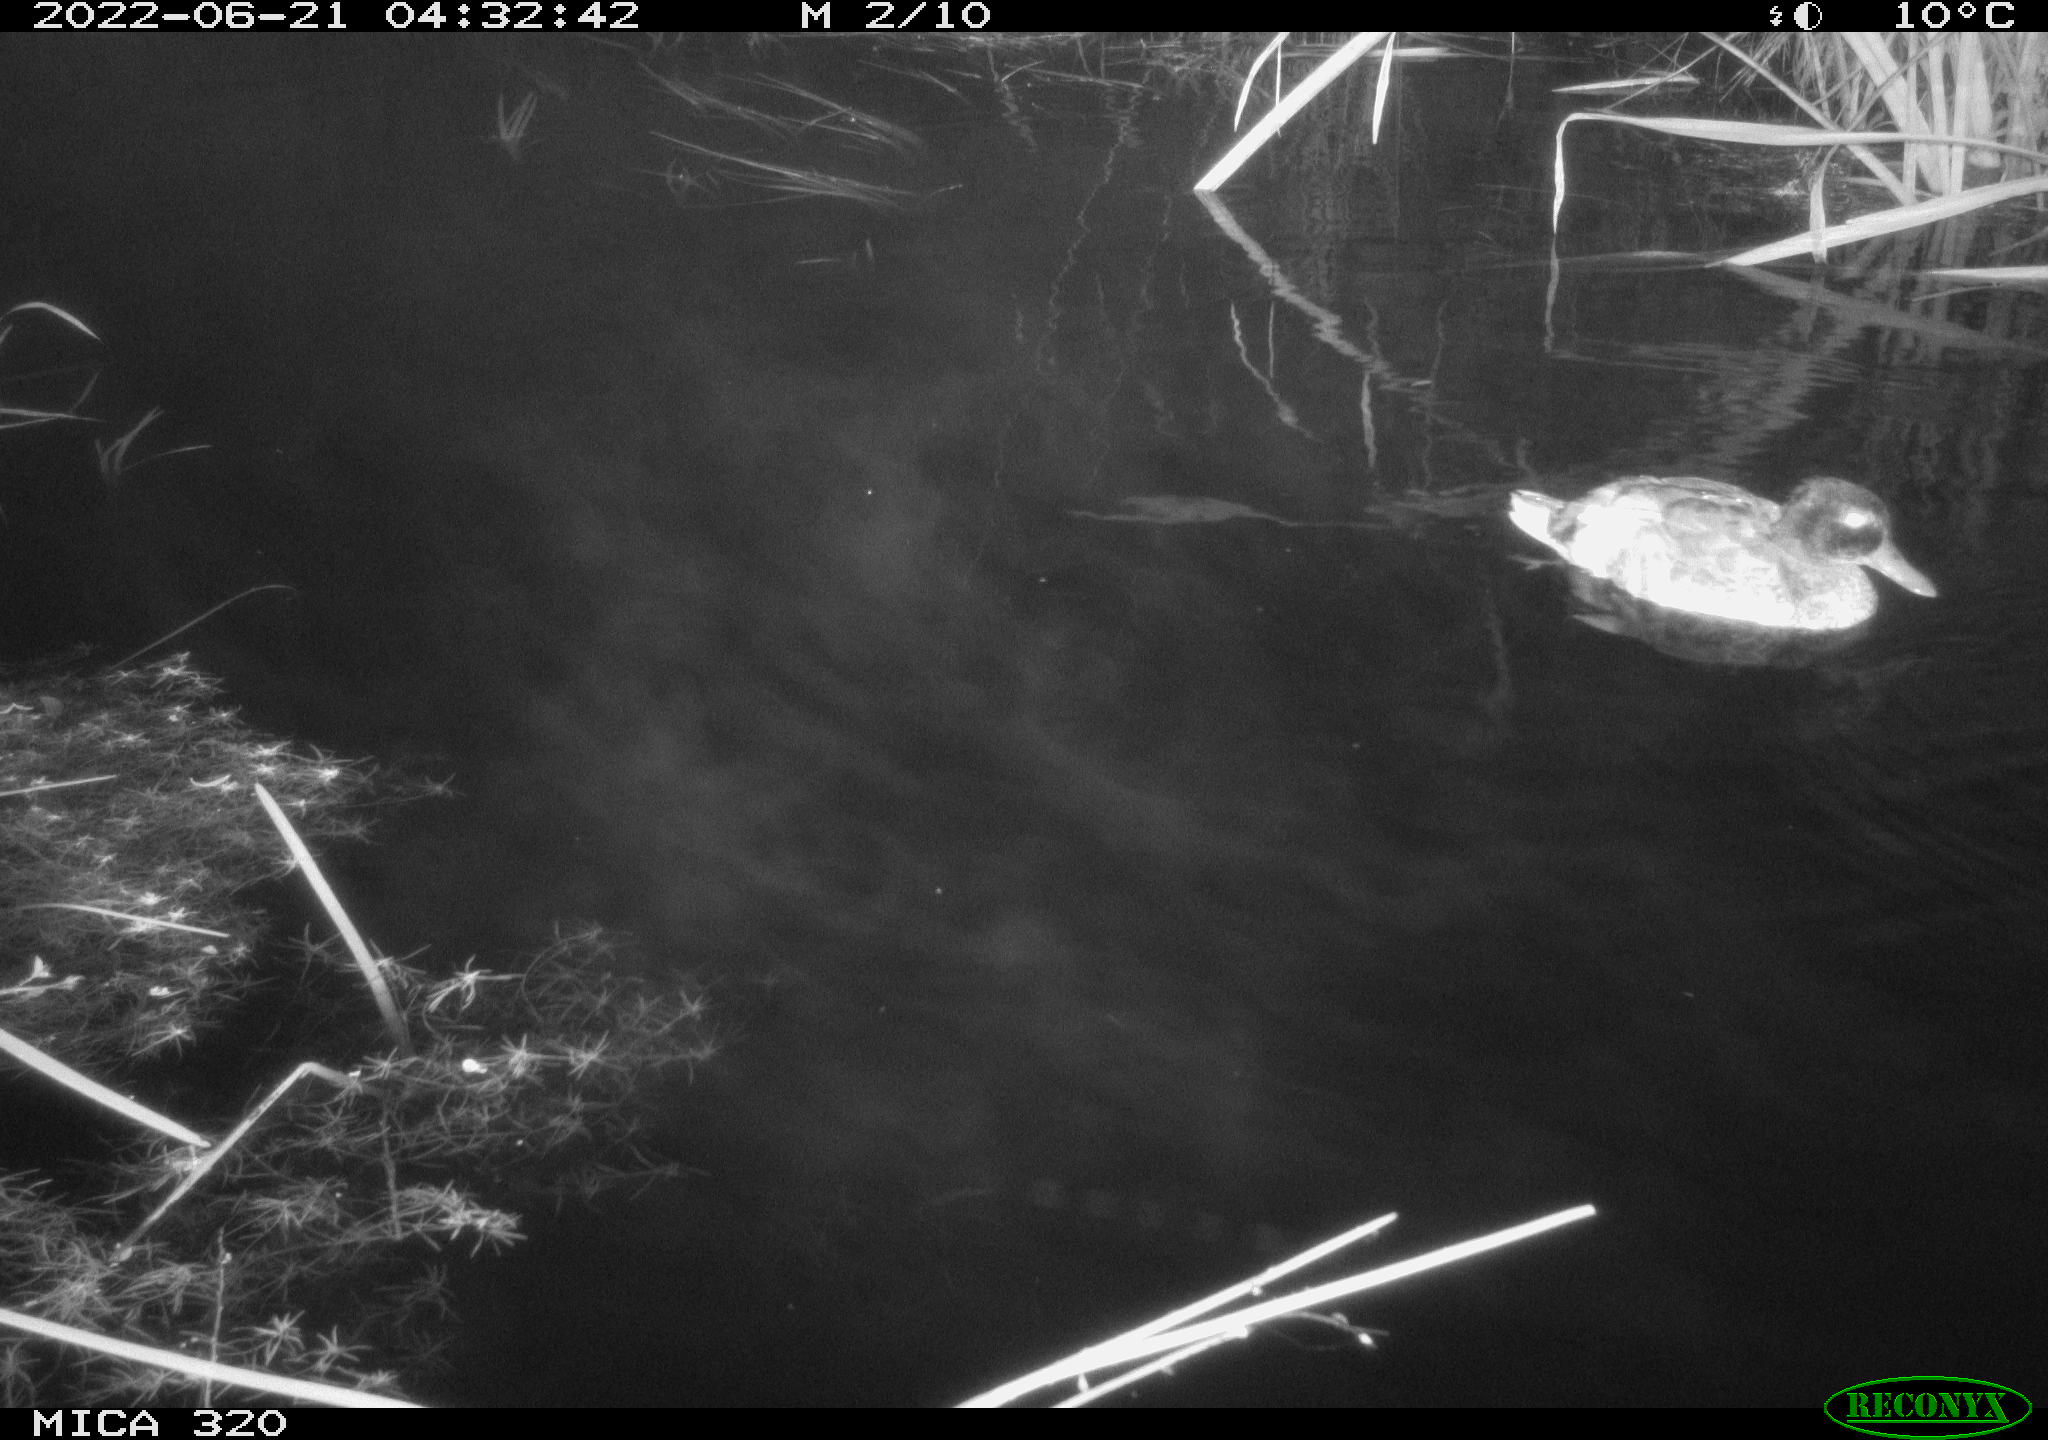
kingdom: Animalia
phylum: Chordata
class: Aves
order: Anseriformes
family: Anatidae
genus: Anas
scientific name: Anas platyrhynchos
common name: Mallard
